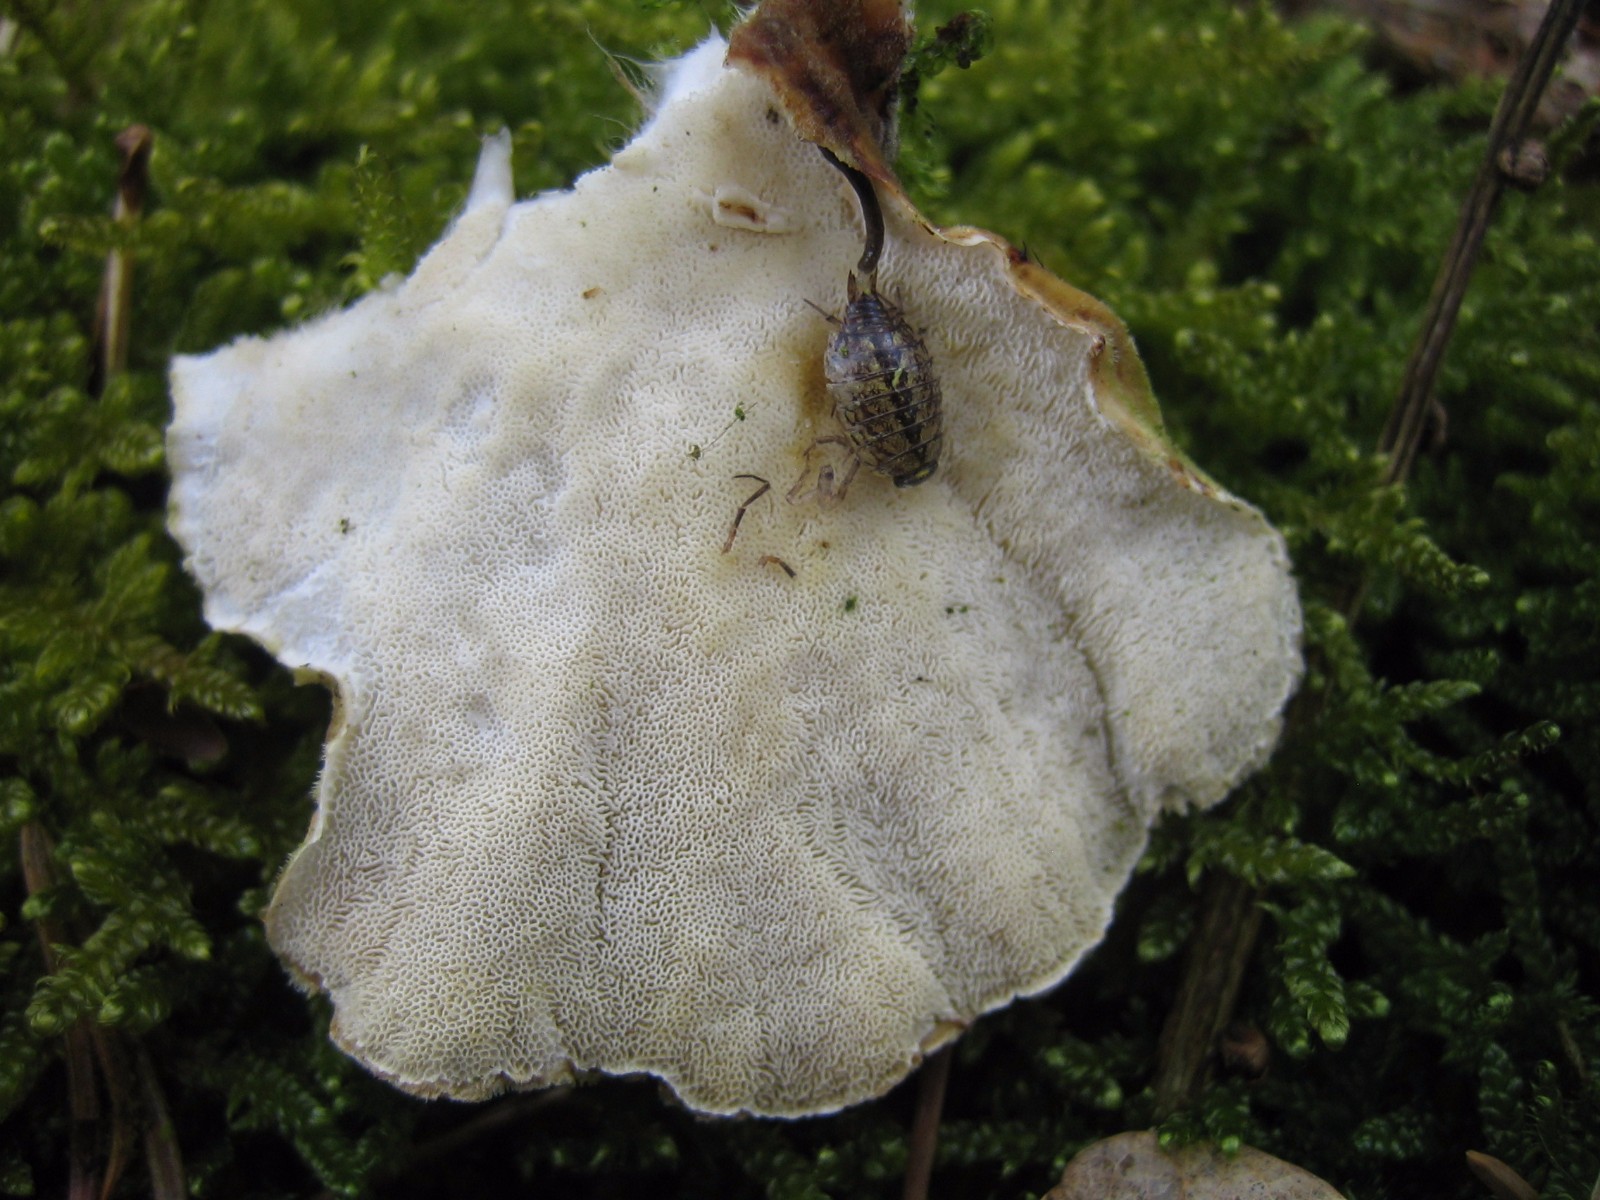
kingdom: Fungi
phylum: Basidiomycota
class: Agaricomycetes
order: Polyporales
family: Polyporaceae
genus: Trametes
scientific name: Trametes ochracea
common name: bæltet læderporesvamp
